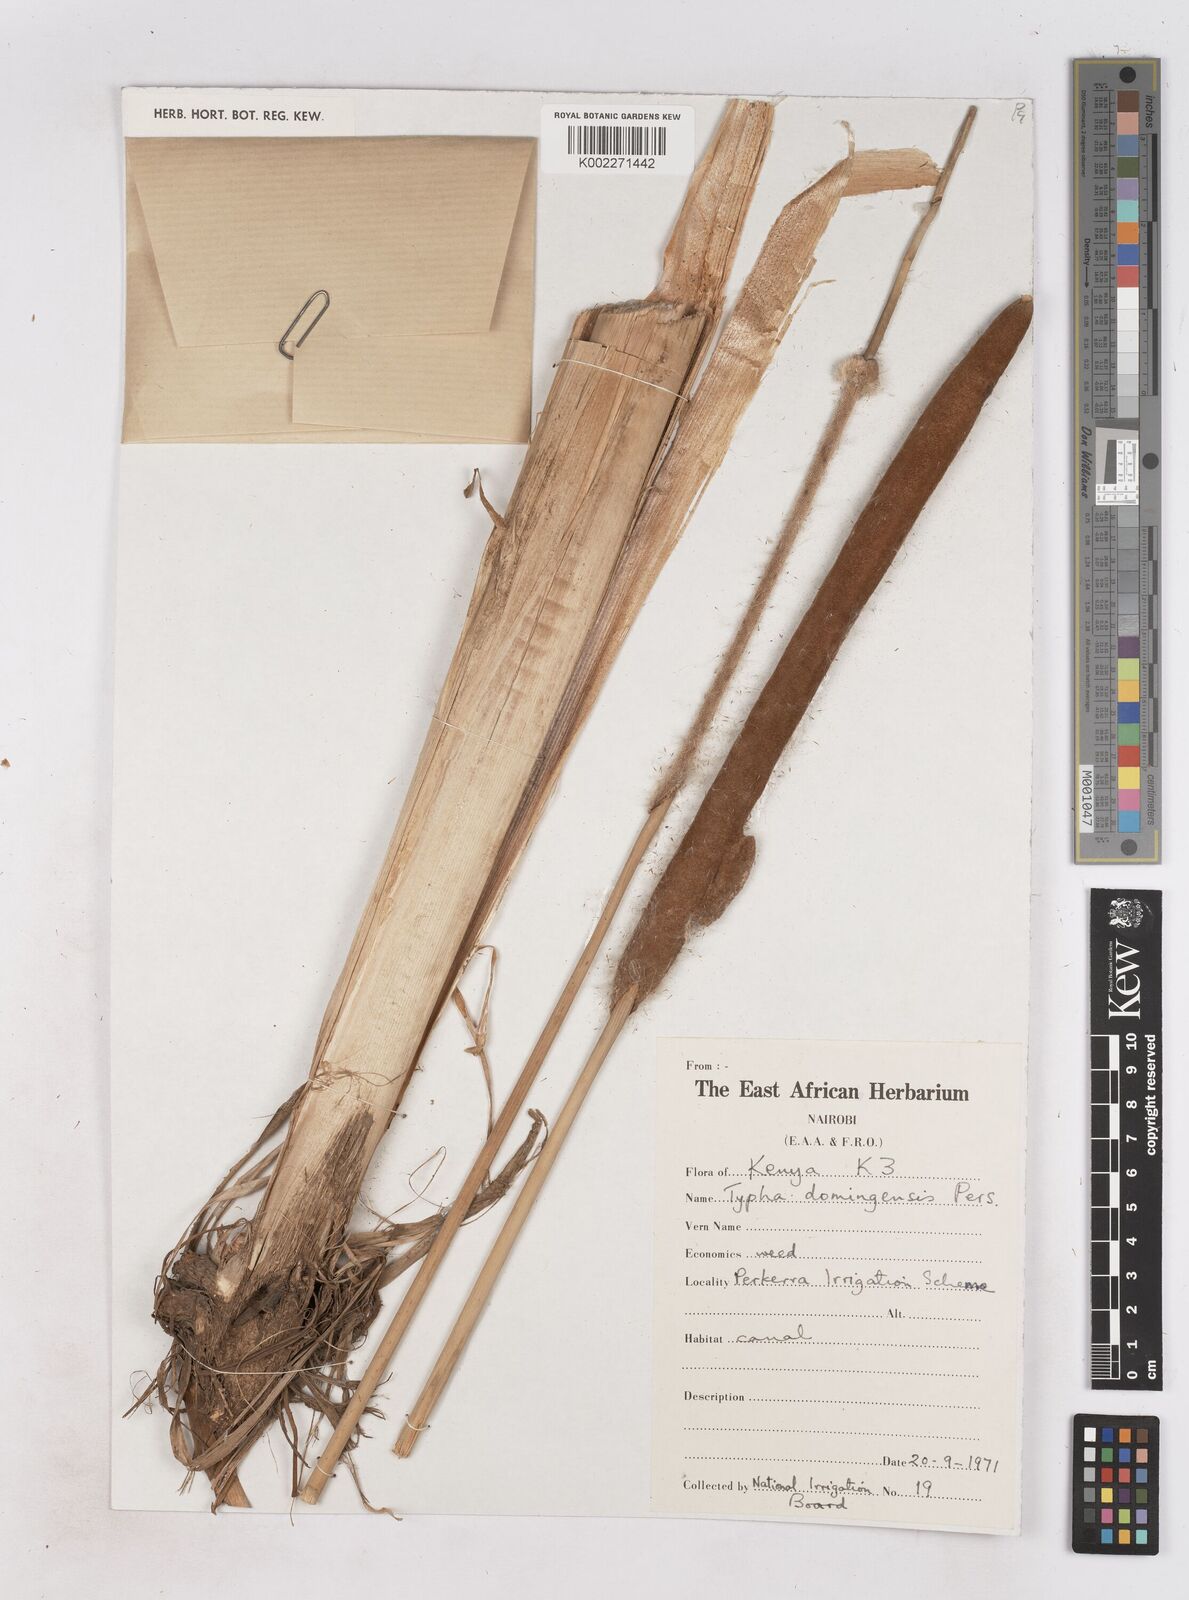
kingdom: Plantae
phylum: Tracheophyta
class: Liliopsida
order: Poales
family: Typhaceae
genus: Typha
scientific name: Typha domingensis
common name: Southern cattail
